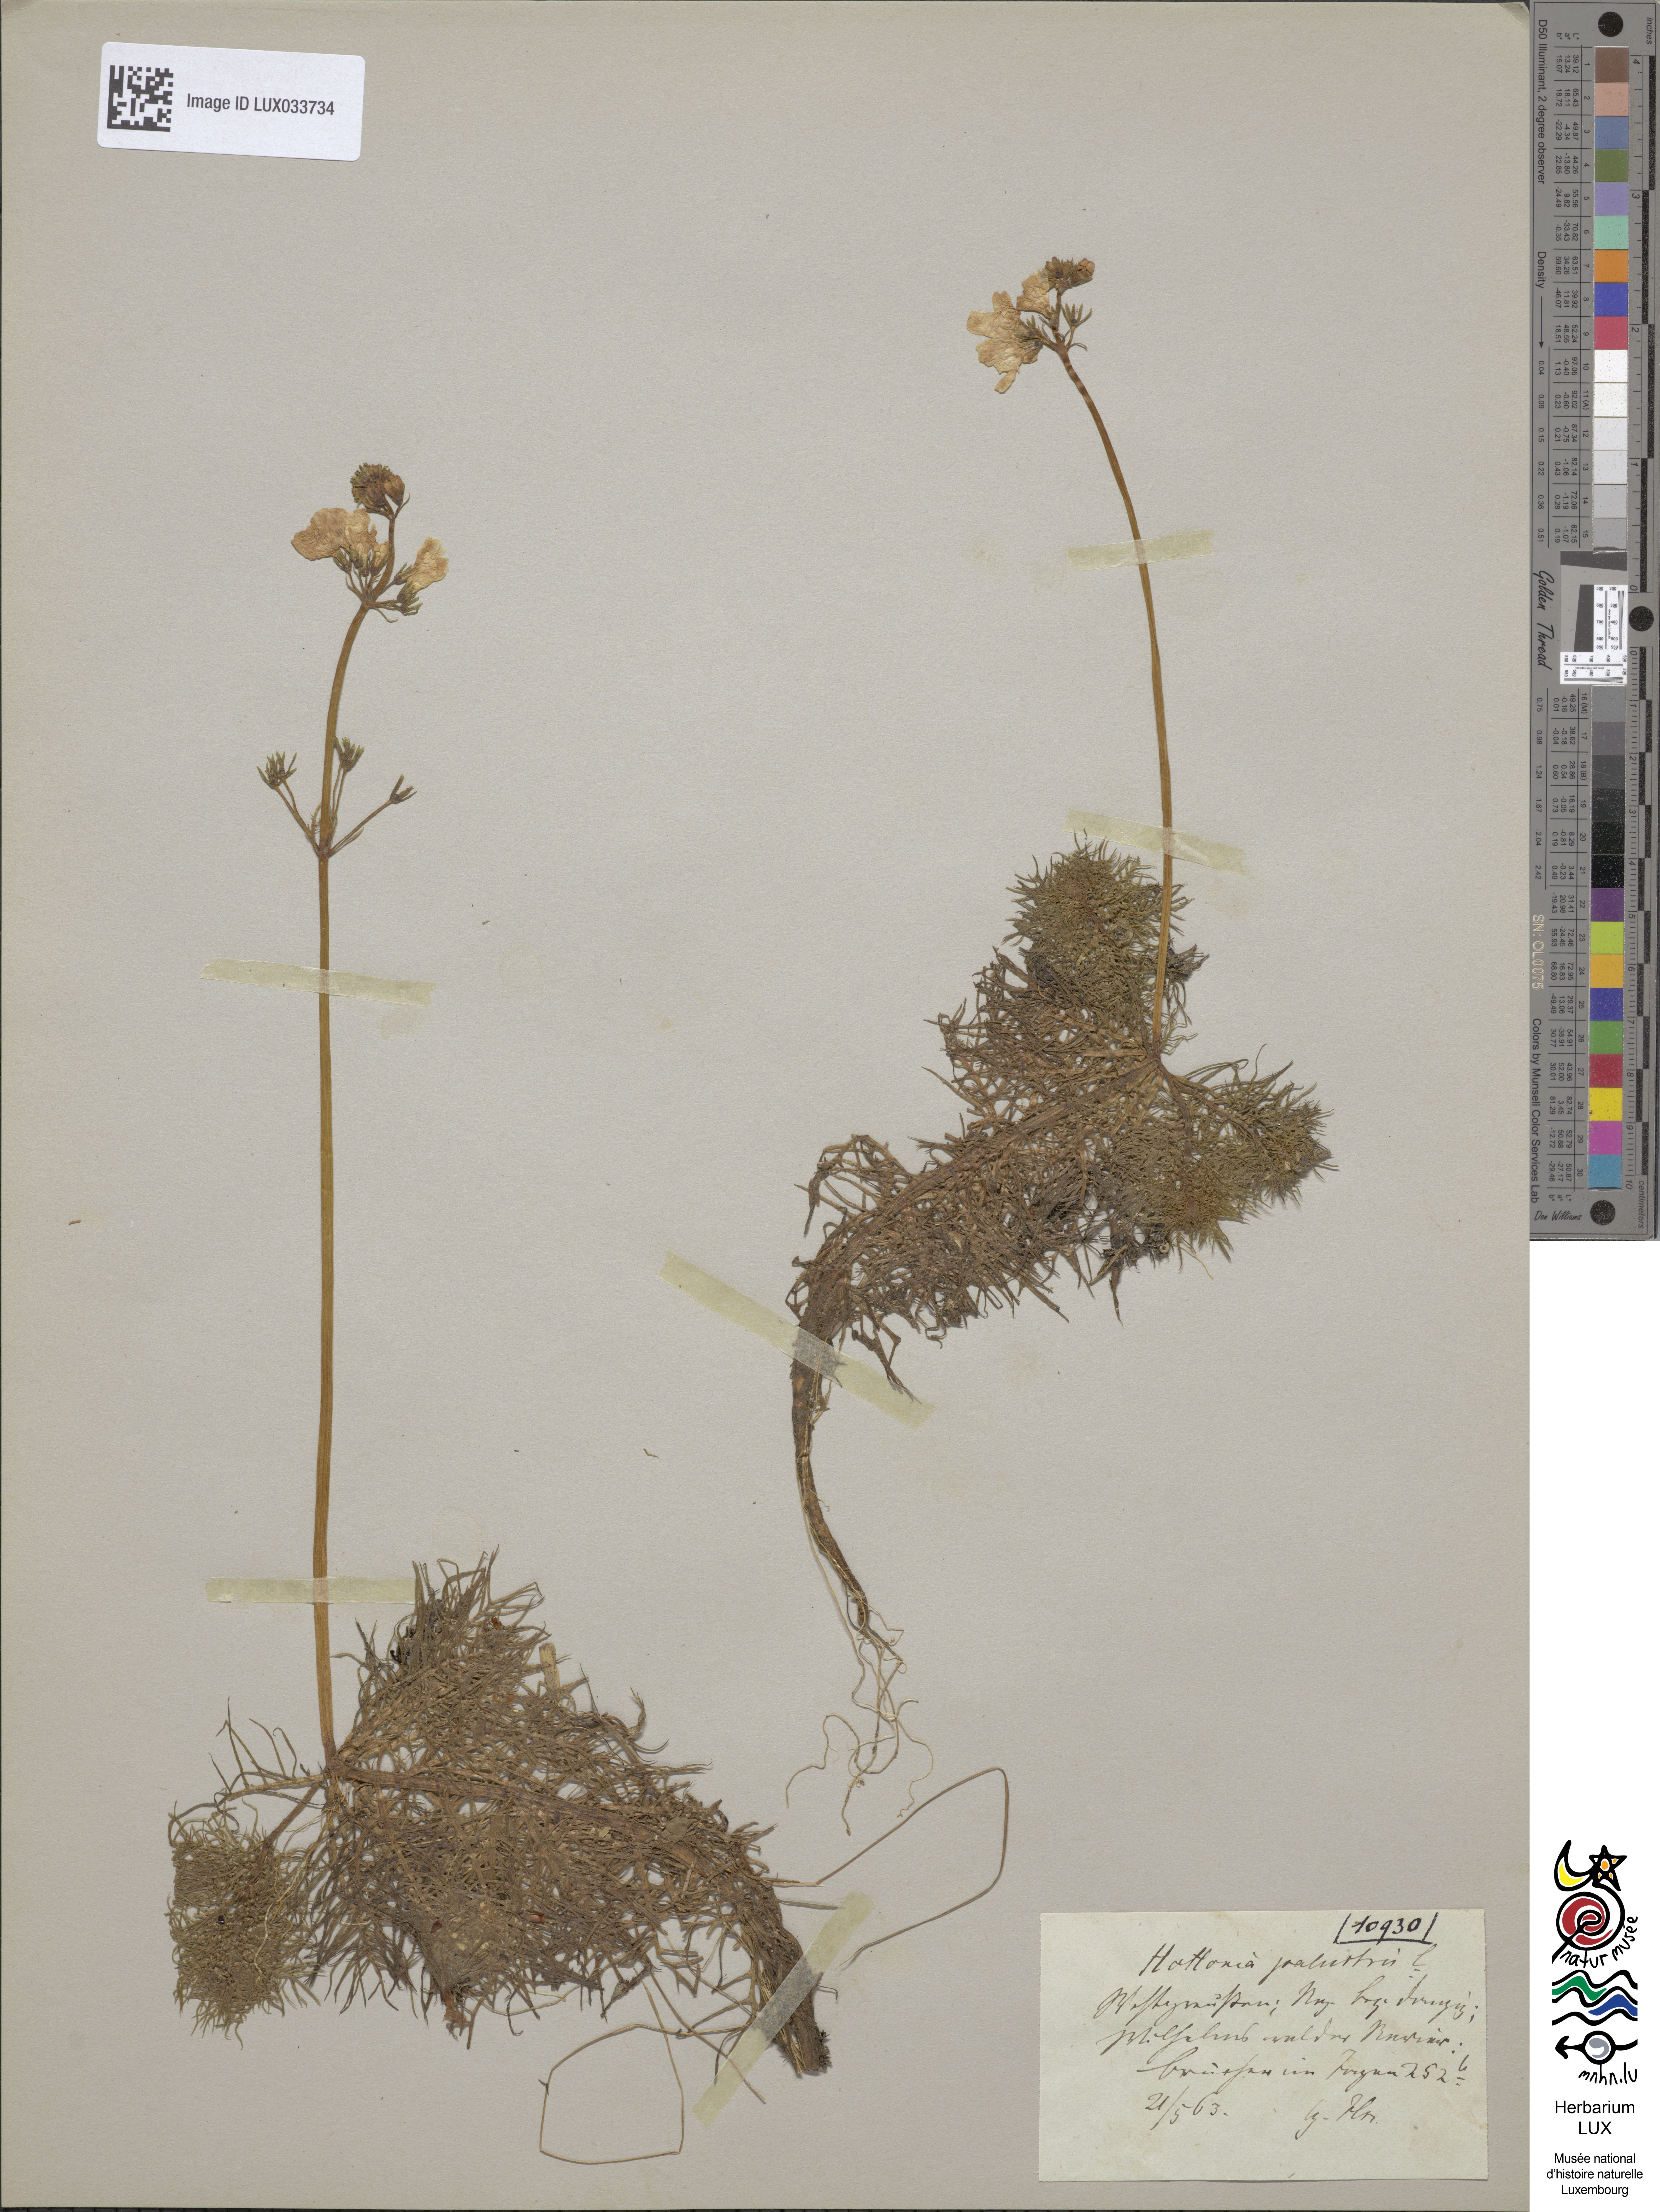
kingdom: Plantae
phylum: Tracheophyta
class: Magnoliopsida
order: Ericales
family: Primulaceae
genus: Hottonia
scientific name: Hottonia palustris
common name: Water-violet
